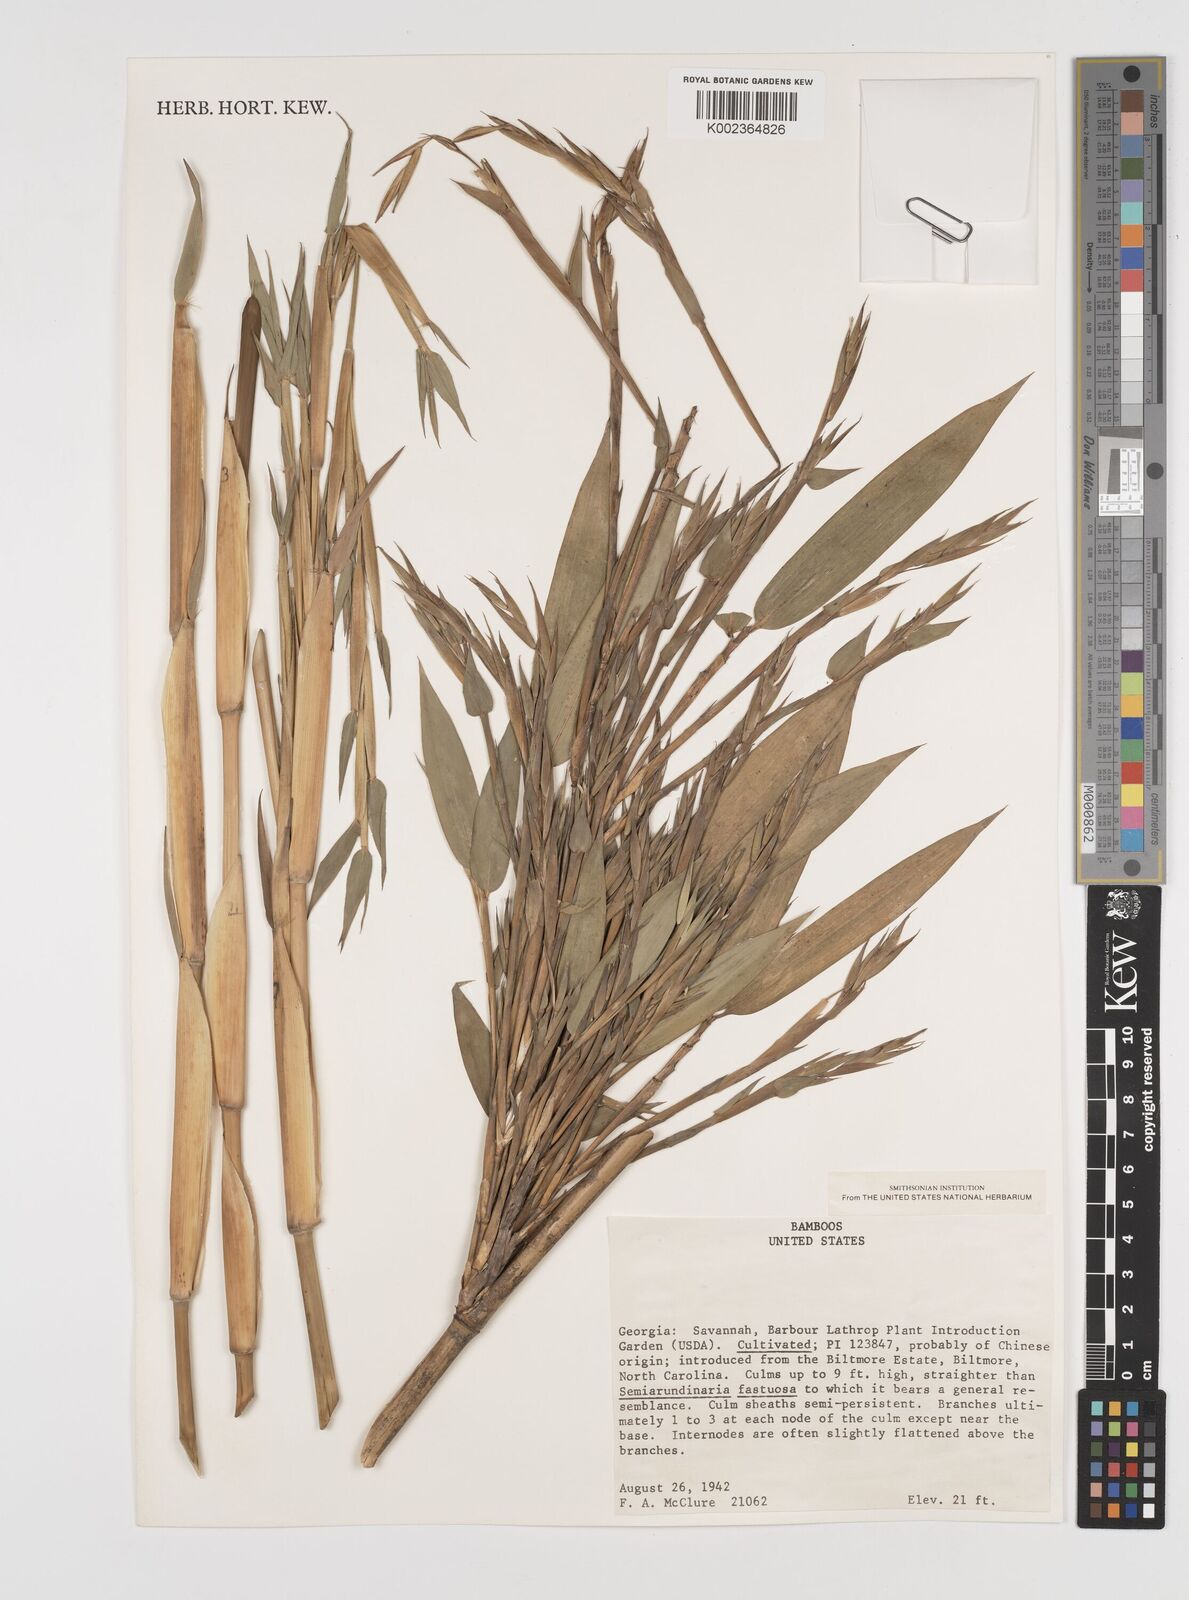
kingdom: Plantae
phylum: Tracheophyta
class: Liliopsida
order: Poales
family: Poaceae
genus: Semiarundinaria
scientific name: Semiarundinaria fastuosa
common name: Narihira bamboo
